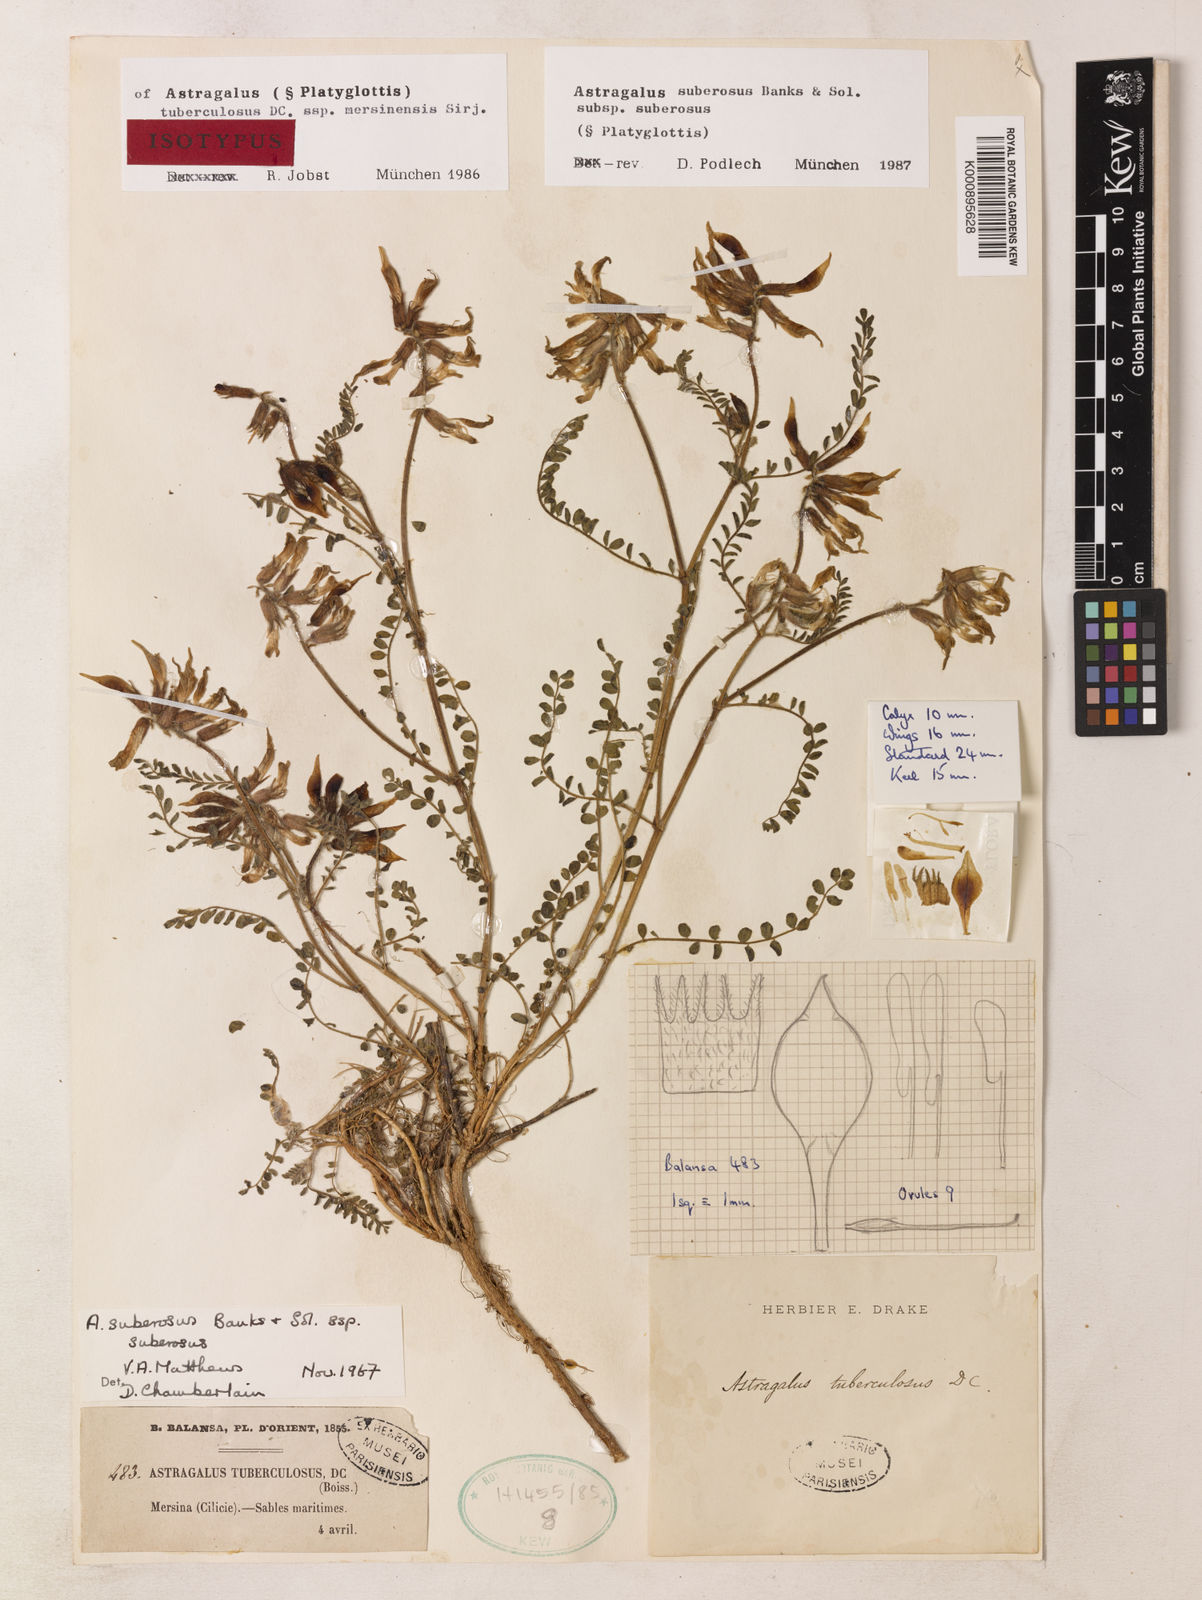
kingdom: Plantae
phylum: Tracheophyta
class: Magnoliopsida
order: Fabales
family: Fabaceae
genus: Astragalus
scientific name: Astragalus suberosus
